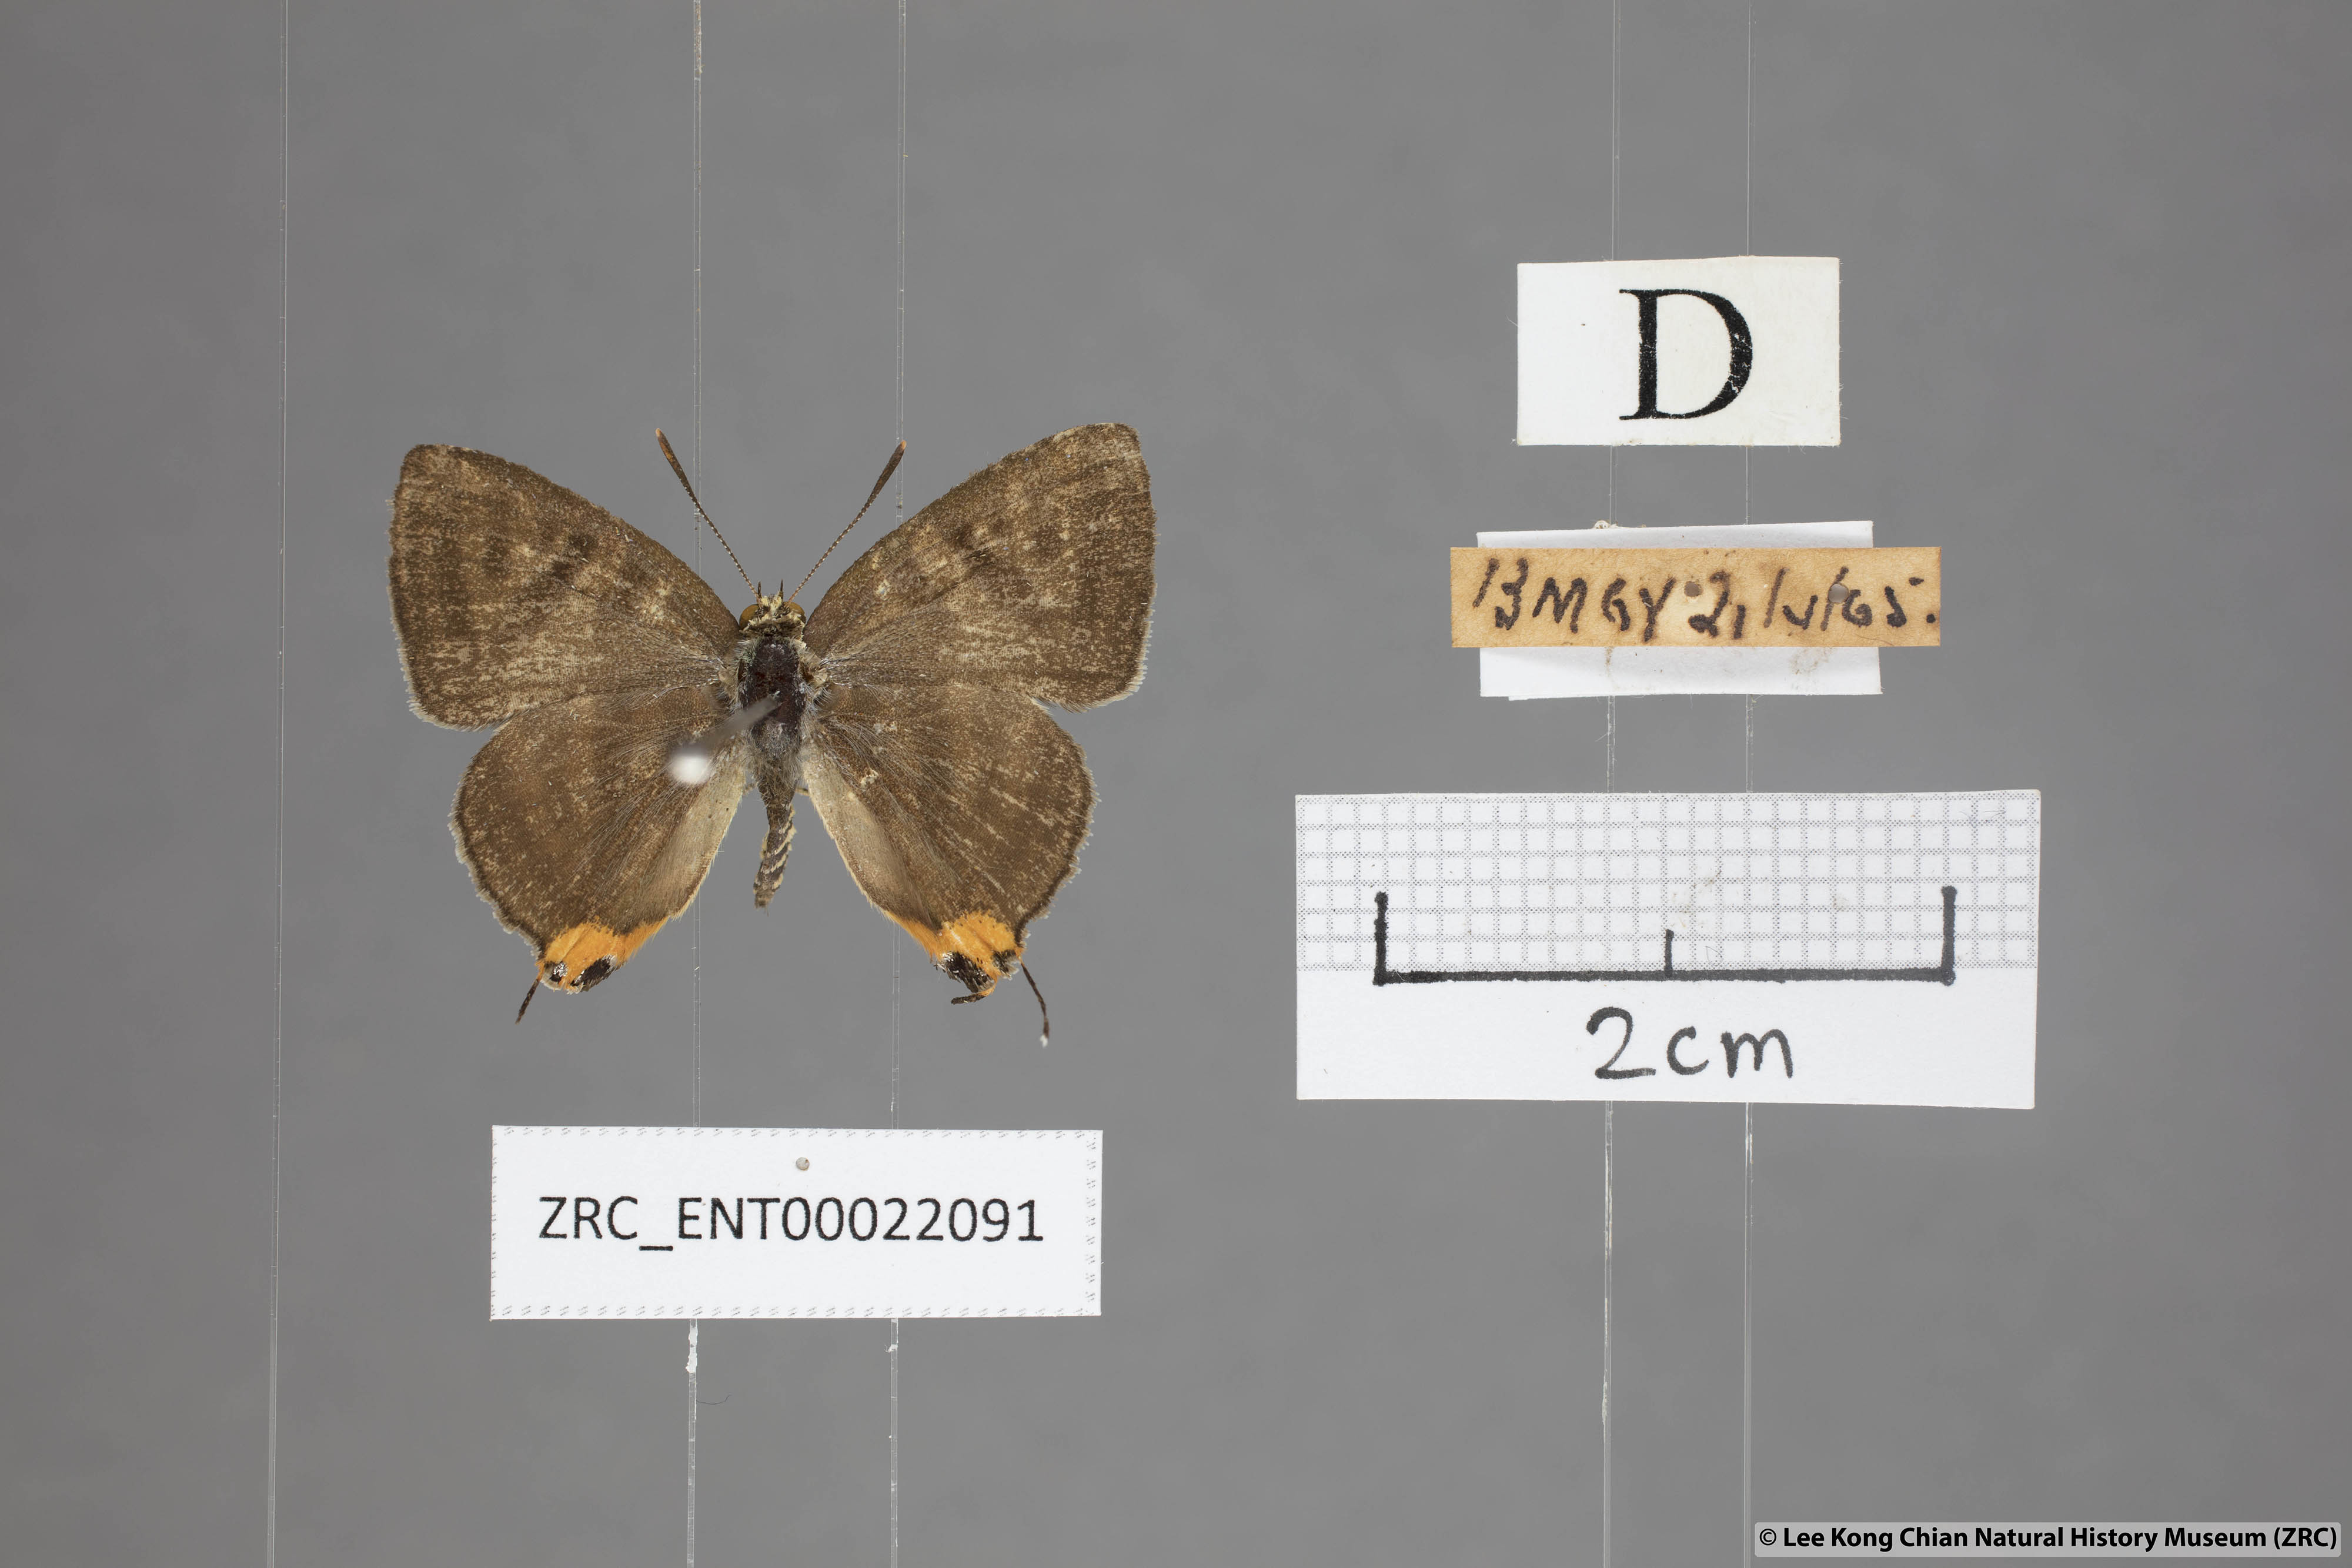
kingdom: Animalia
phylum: Arthropoda
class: Insecta
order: Lepidoptera
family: Lycaenidae
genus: Spindasis
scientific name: Spindasis syama
